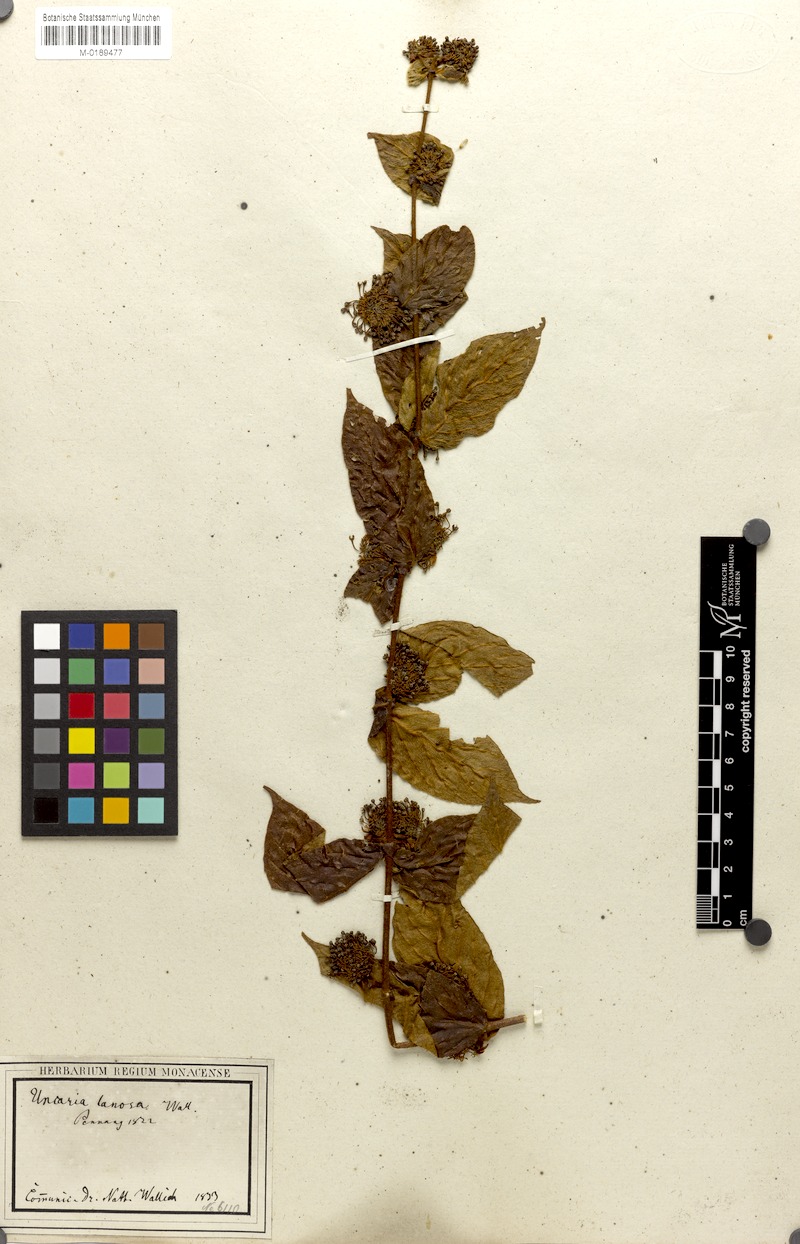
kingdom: Plantae
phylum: Tracheophyta
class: Magnoliopsida
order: Gentianales
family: Rubiaceae
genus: Uncaria
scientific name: Uncaria lanosa
